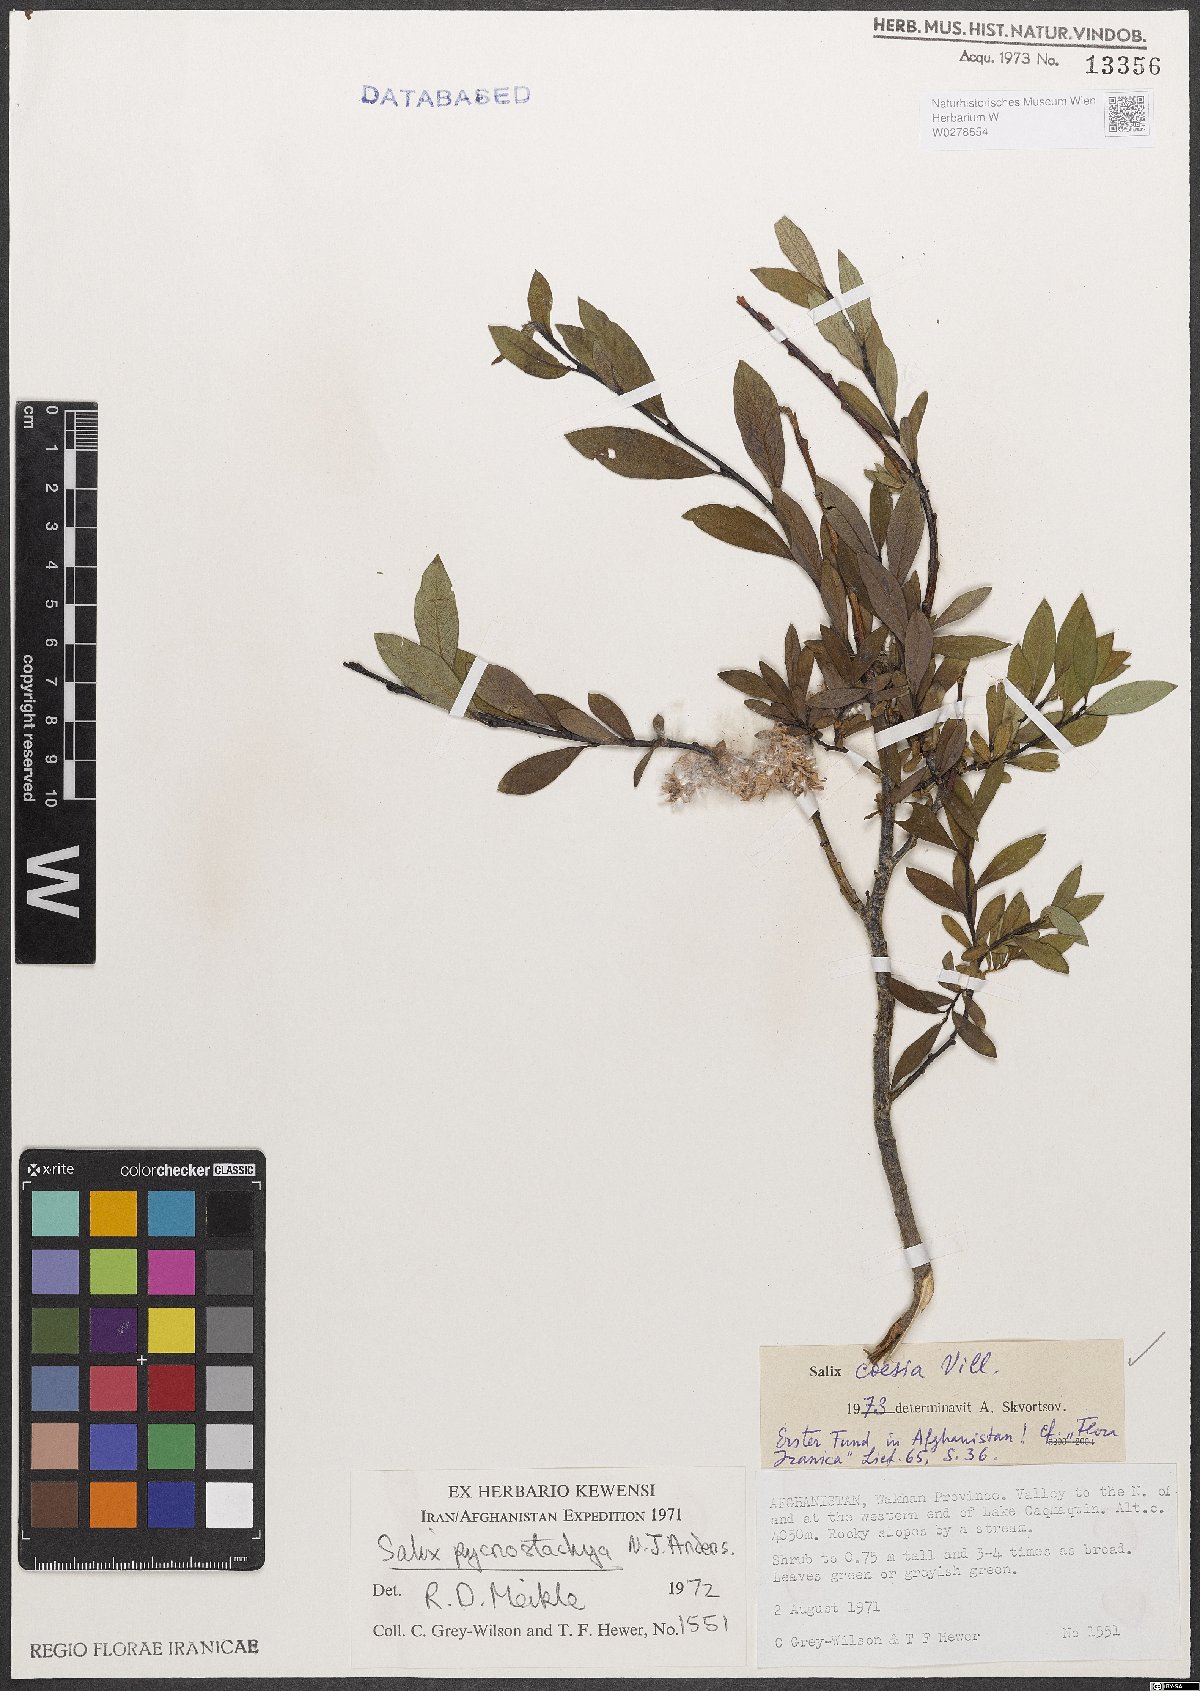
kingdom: Plantae
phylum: Tracheophyta
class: Magnoliopsida
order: Malpighiales
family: Salicaceae
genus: Salix
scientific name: Salix caesia
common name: Blue willow
